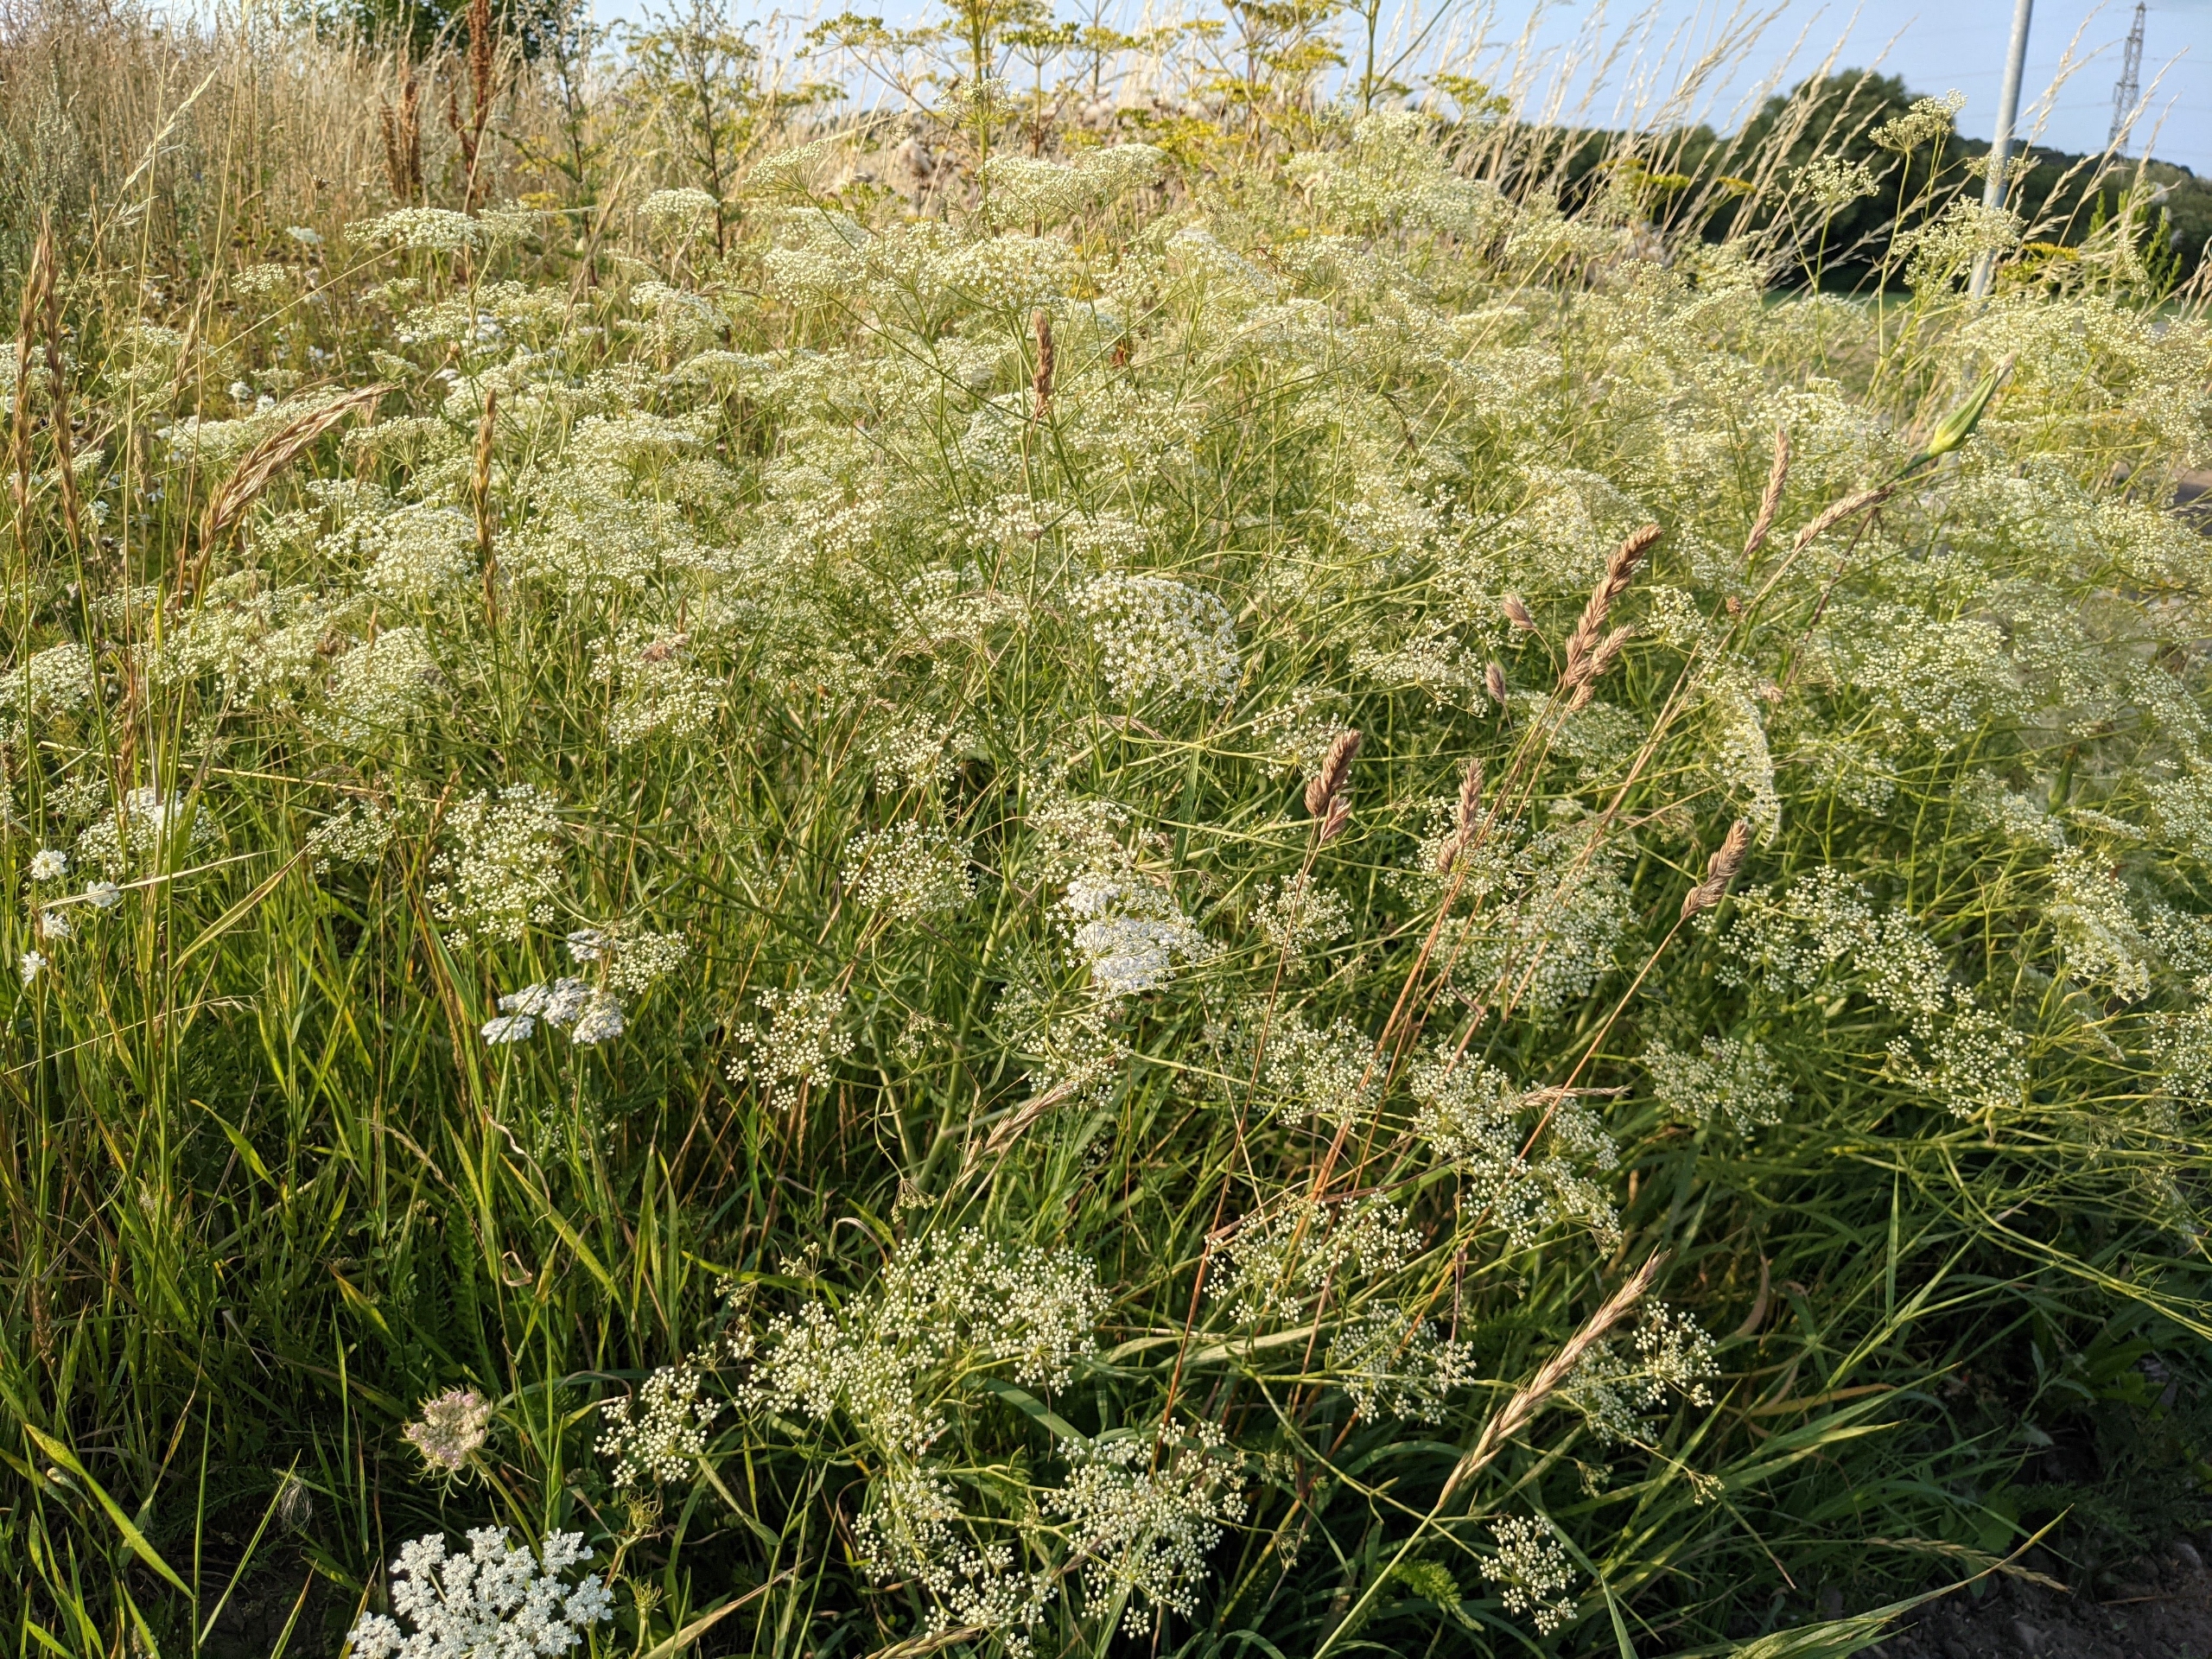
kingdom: Plantae
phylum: Tracheophyta
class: Magnoliopsida
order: Apiales
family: Apiaceae
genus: Falcaria
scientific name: Falcaria vulgaris
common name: Seglblad
